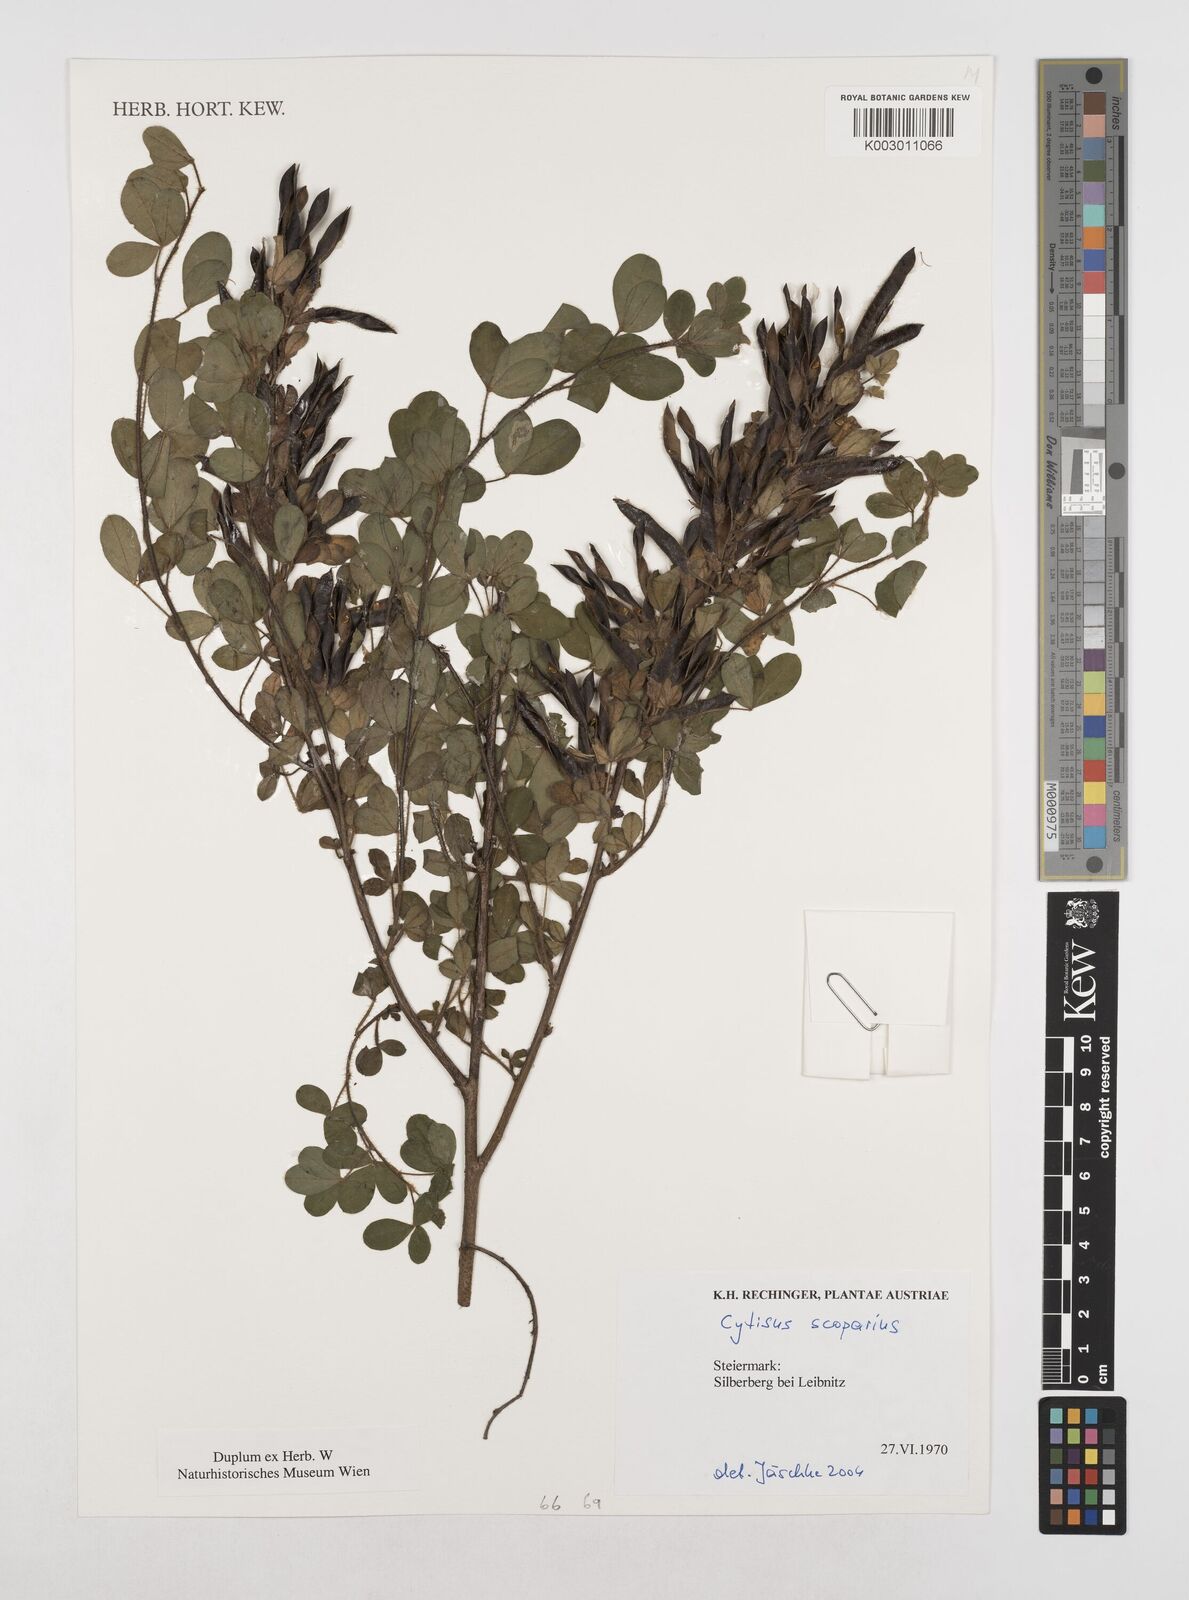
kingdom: Plantae
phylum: Tracheophyta
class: Magnoliopsida
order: Fabales
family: Fabaceae
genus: Cytisus
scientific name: Cytisus scoparius
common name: Scotch broom
